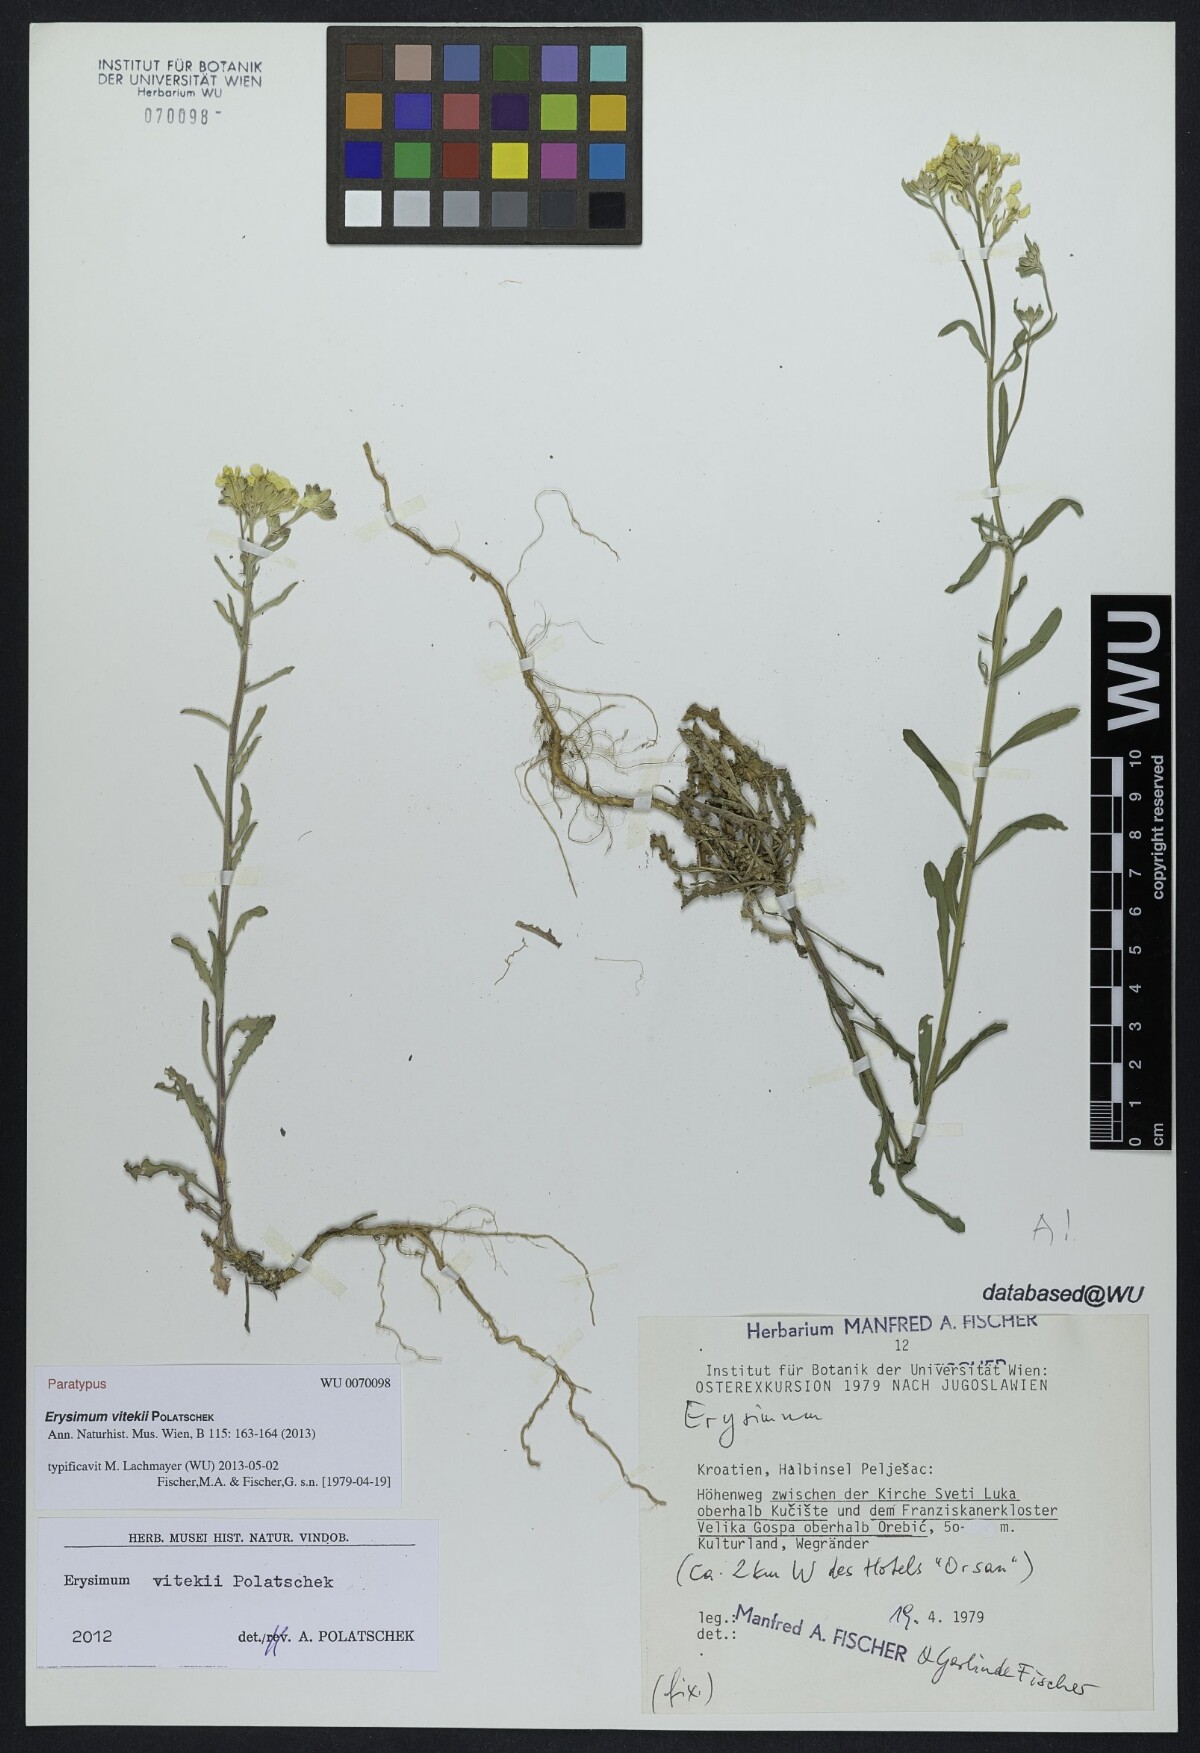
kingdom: Plantae
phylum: Tracheophyta
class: Magnoliopsida
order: Brassicales
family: Brassicaceae
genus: Erysimum
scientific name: Erysimum vitekii
